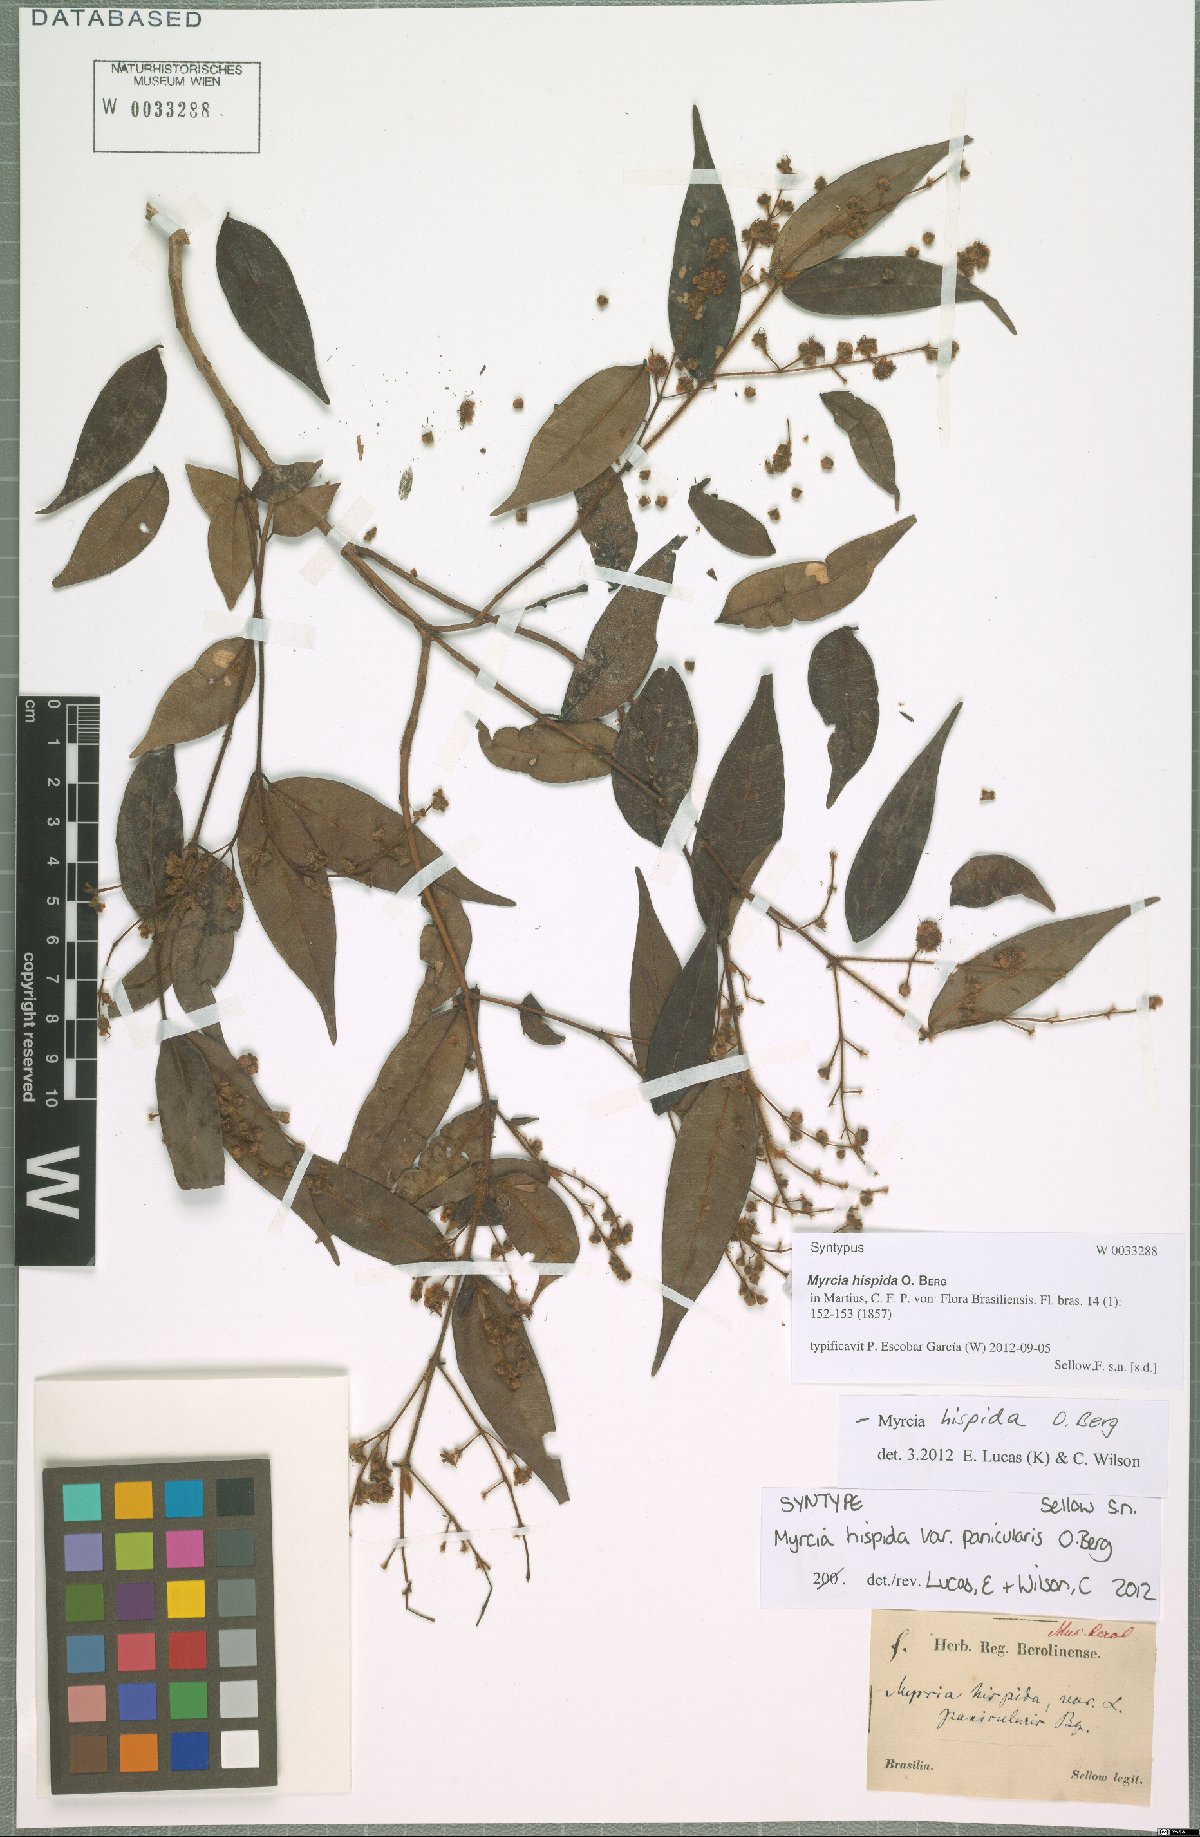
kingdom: Plantae
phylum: Tracheophyta
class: Magnoliopsida
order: Myrtales
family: Myrtaceae
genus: Myrcia
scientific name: Myrcia hispida
